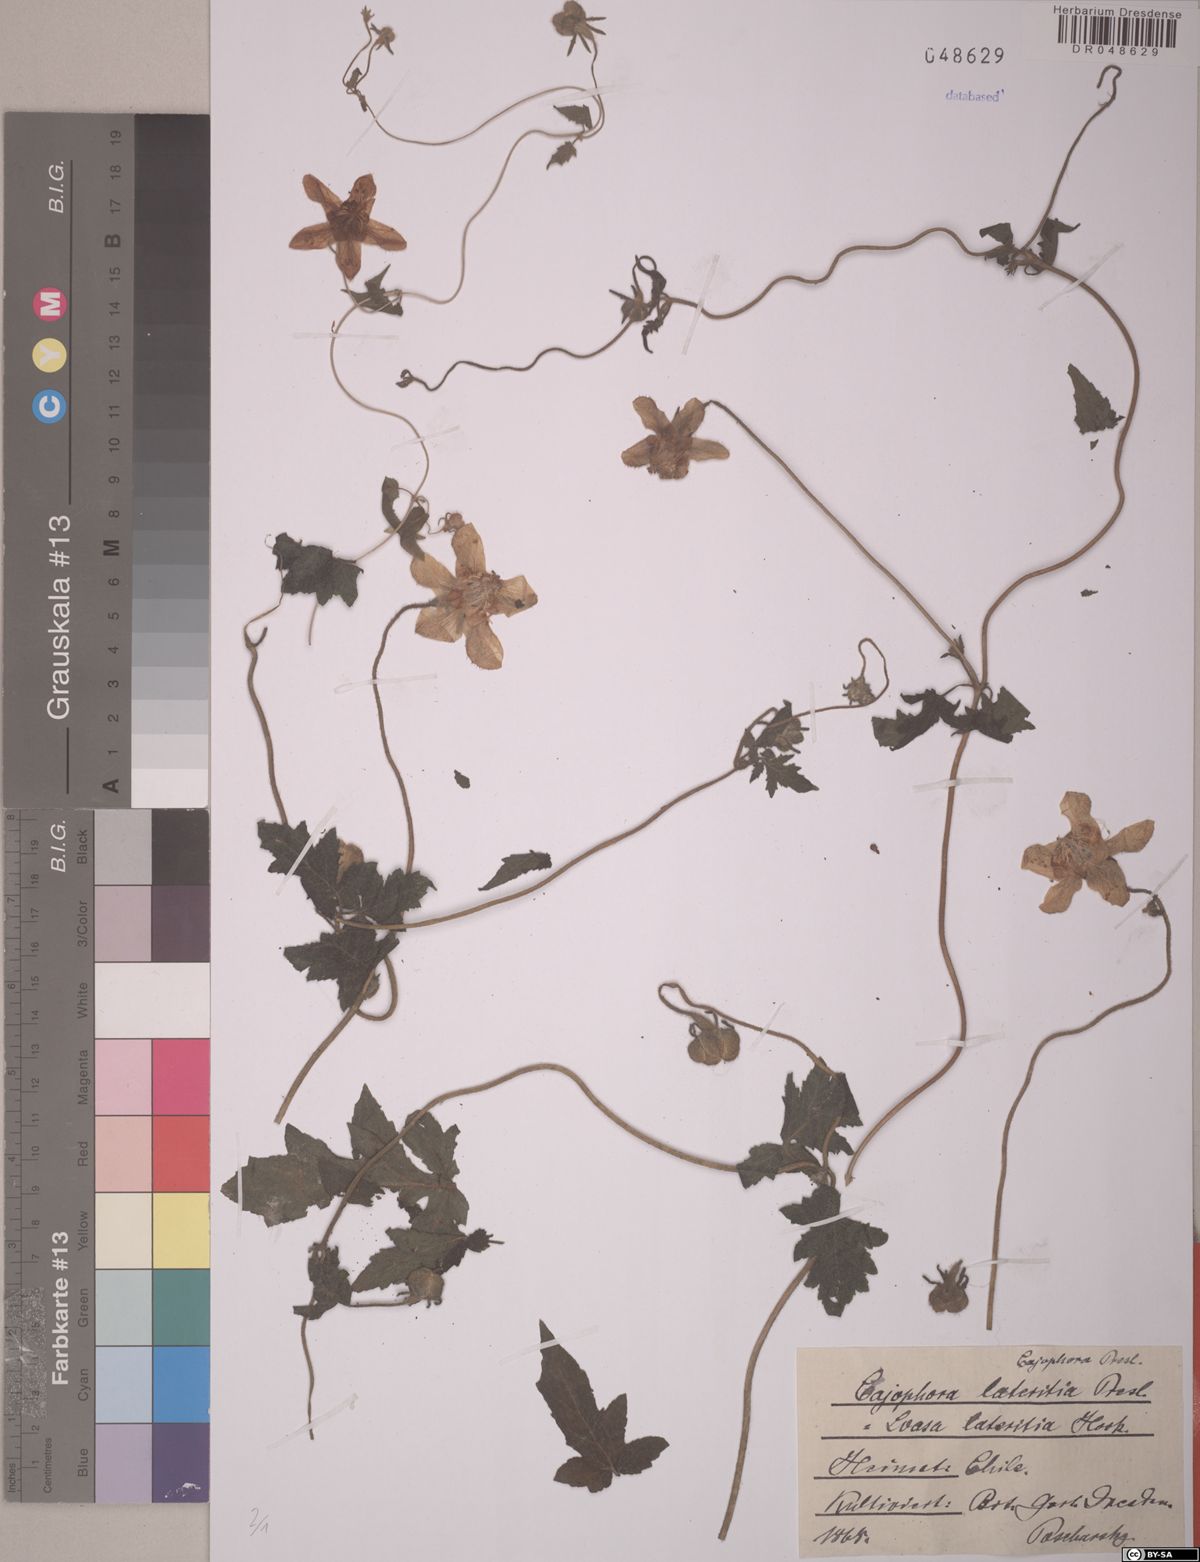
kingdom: Plantae
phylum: Tracheophyta
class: Magnoliopsida
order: Cornales
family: Loasaceae
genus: Caiophora
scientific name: Caiophora lateritia
